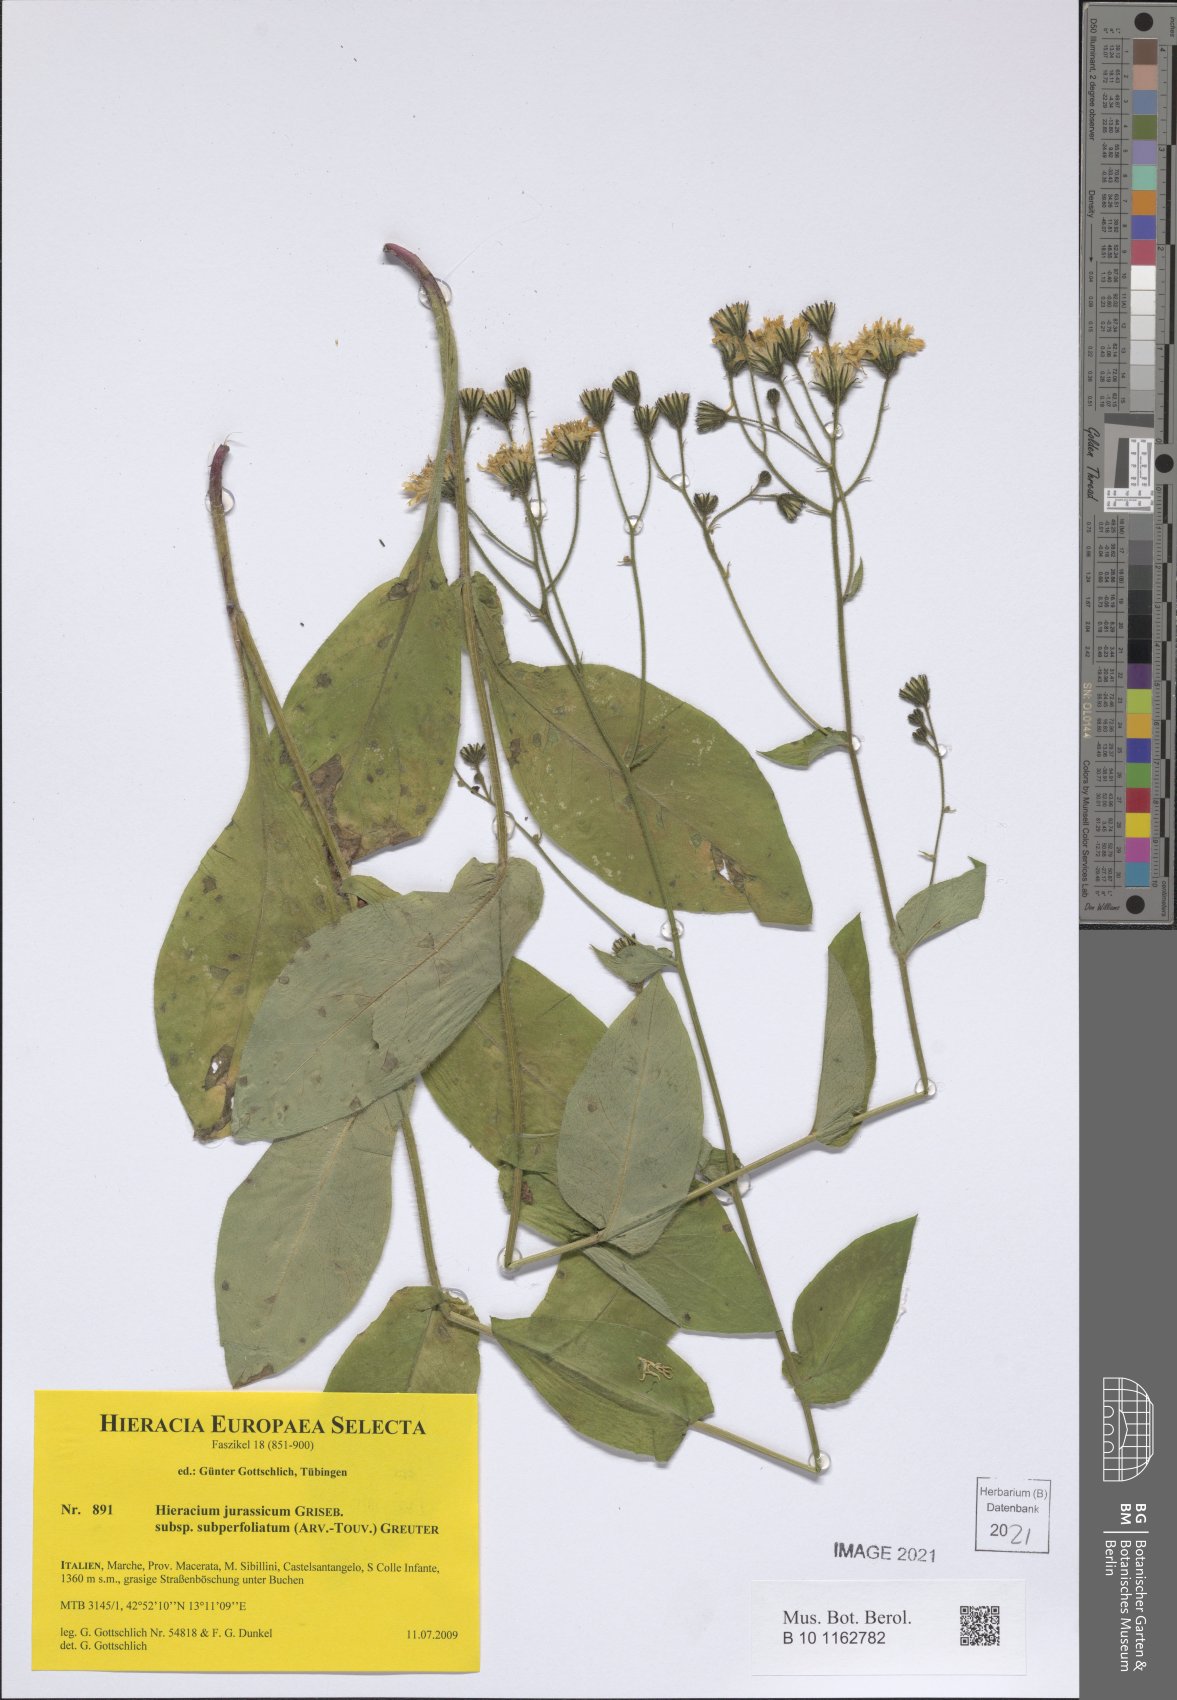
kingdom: Plantae
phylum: Tracheophyta
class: Magnoliopsida
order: Asterales
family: Asteraceae
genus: Hieracium
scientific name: Hieracium jurassicum
